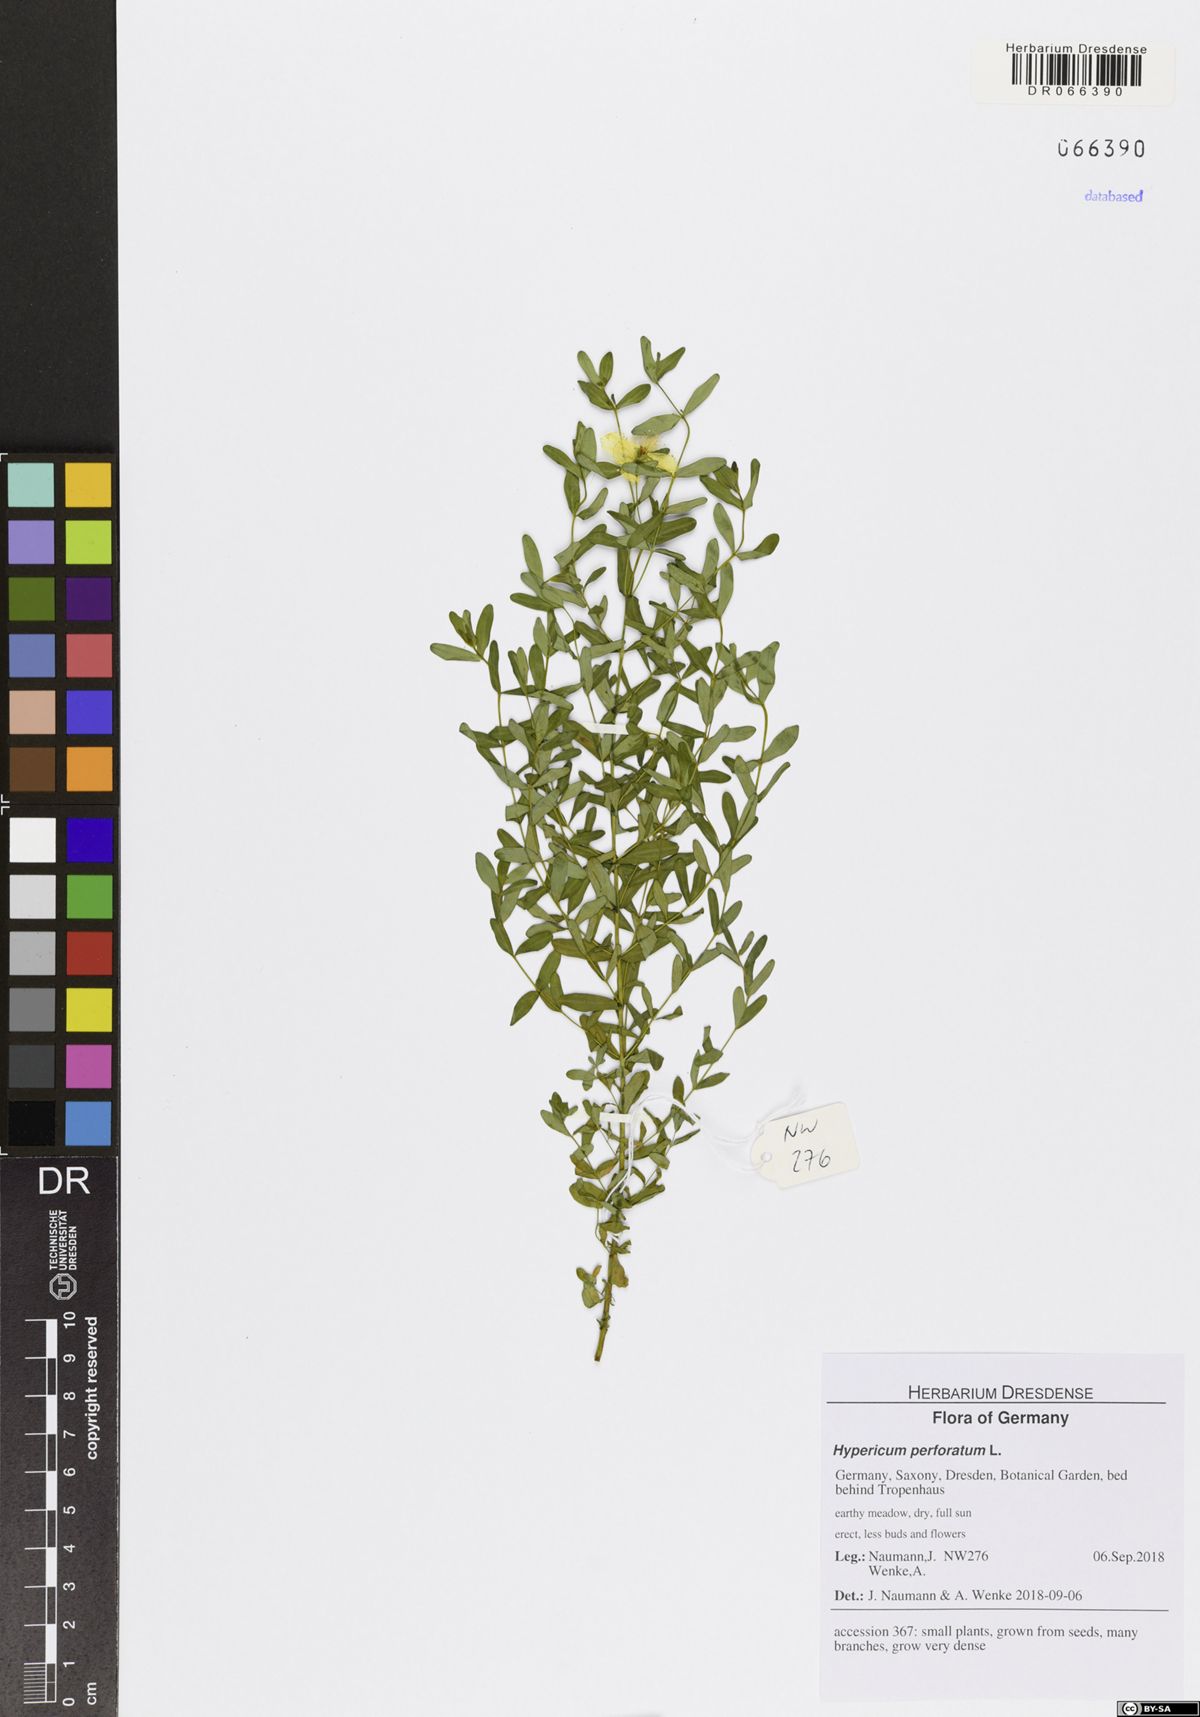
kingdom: Plantae
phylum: Tracheophyta
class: Magnoliopsida
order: Malpighiales
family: Hypericaceae
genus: Hypericum
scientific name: Hypericum perforatum
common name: Common st. johnswort
